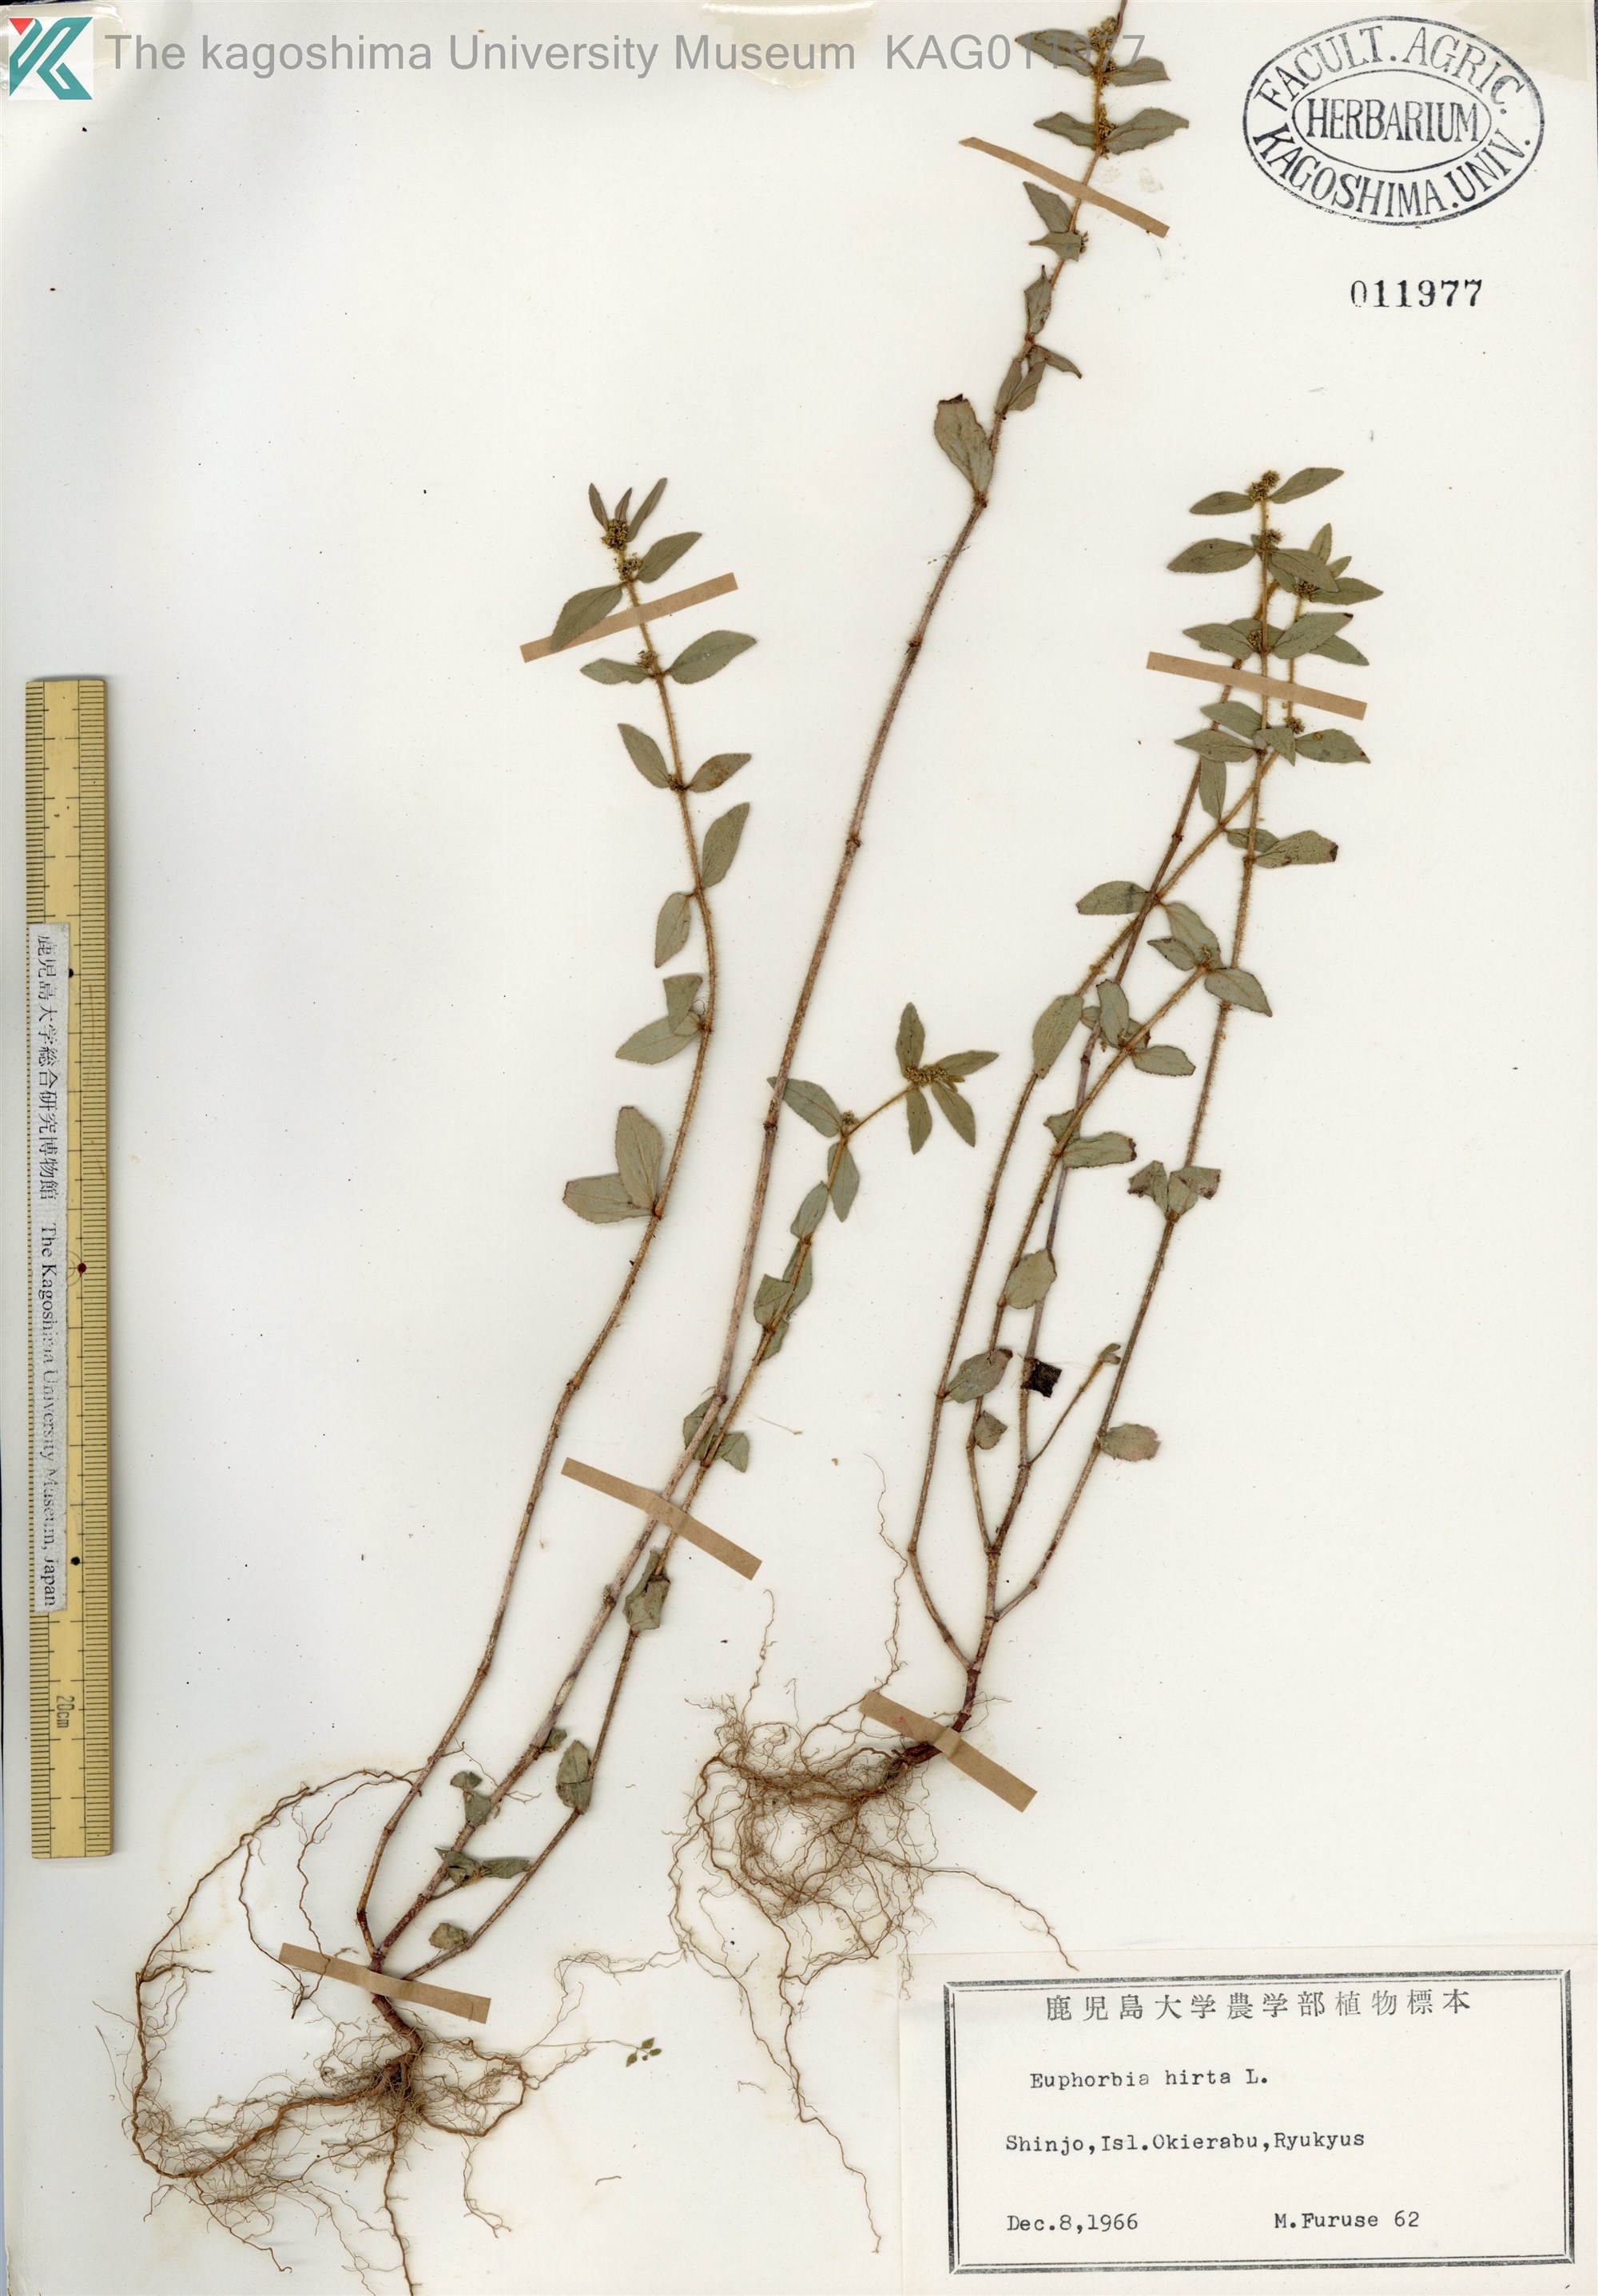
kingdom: Plantae
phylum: Tracheophyta
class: Magnoliopsida
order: Malpighiales
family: Euphorbiaceae
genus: Euphorbia
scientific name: Euphorbia hirta
